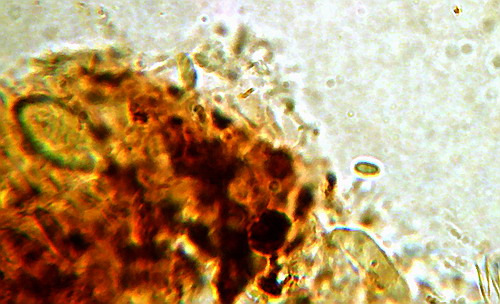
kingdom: Fungi
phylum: Basidiomycota
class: Agaricomycetes
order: Cantharellales
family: Botryobasidiaceae
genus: Botryobasidium
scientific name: Botryobasidium aureum
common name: gylden spindhinde
